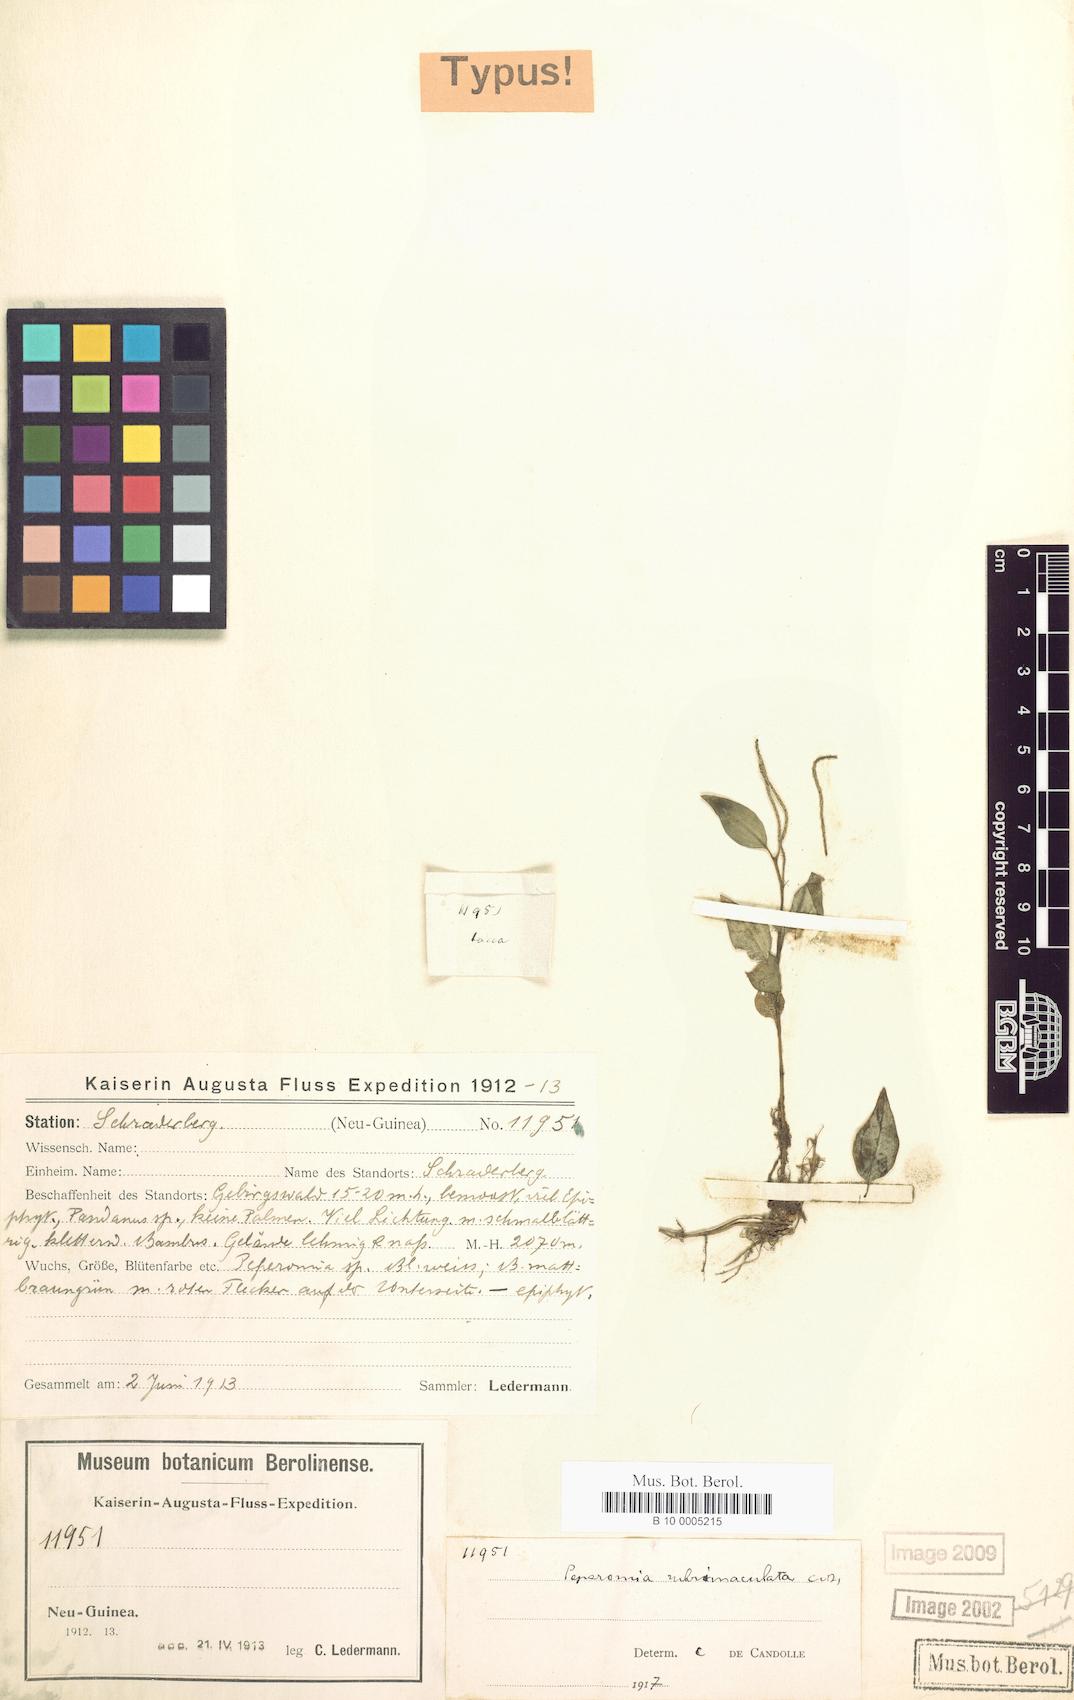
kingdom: Plantae
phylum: Tracheophyta
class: Magnoliopsida
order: Piperales
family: Piperaceae
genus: Peperomia
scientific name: Peperomia rubrimaculata
